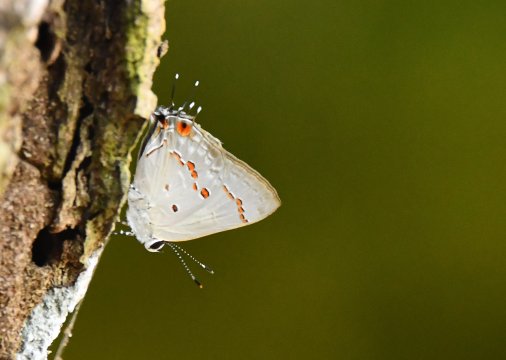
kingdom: Animalia
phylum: Arthropoda
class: Insecta
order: Lepidoptera
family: Lycaenidae
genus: Thecla
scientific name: Thecla ziba
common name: Ziba Scrub-Hairstreak
